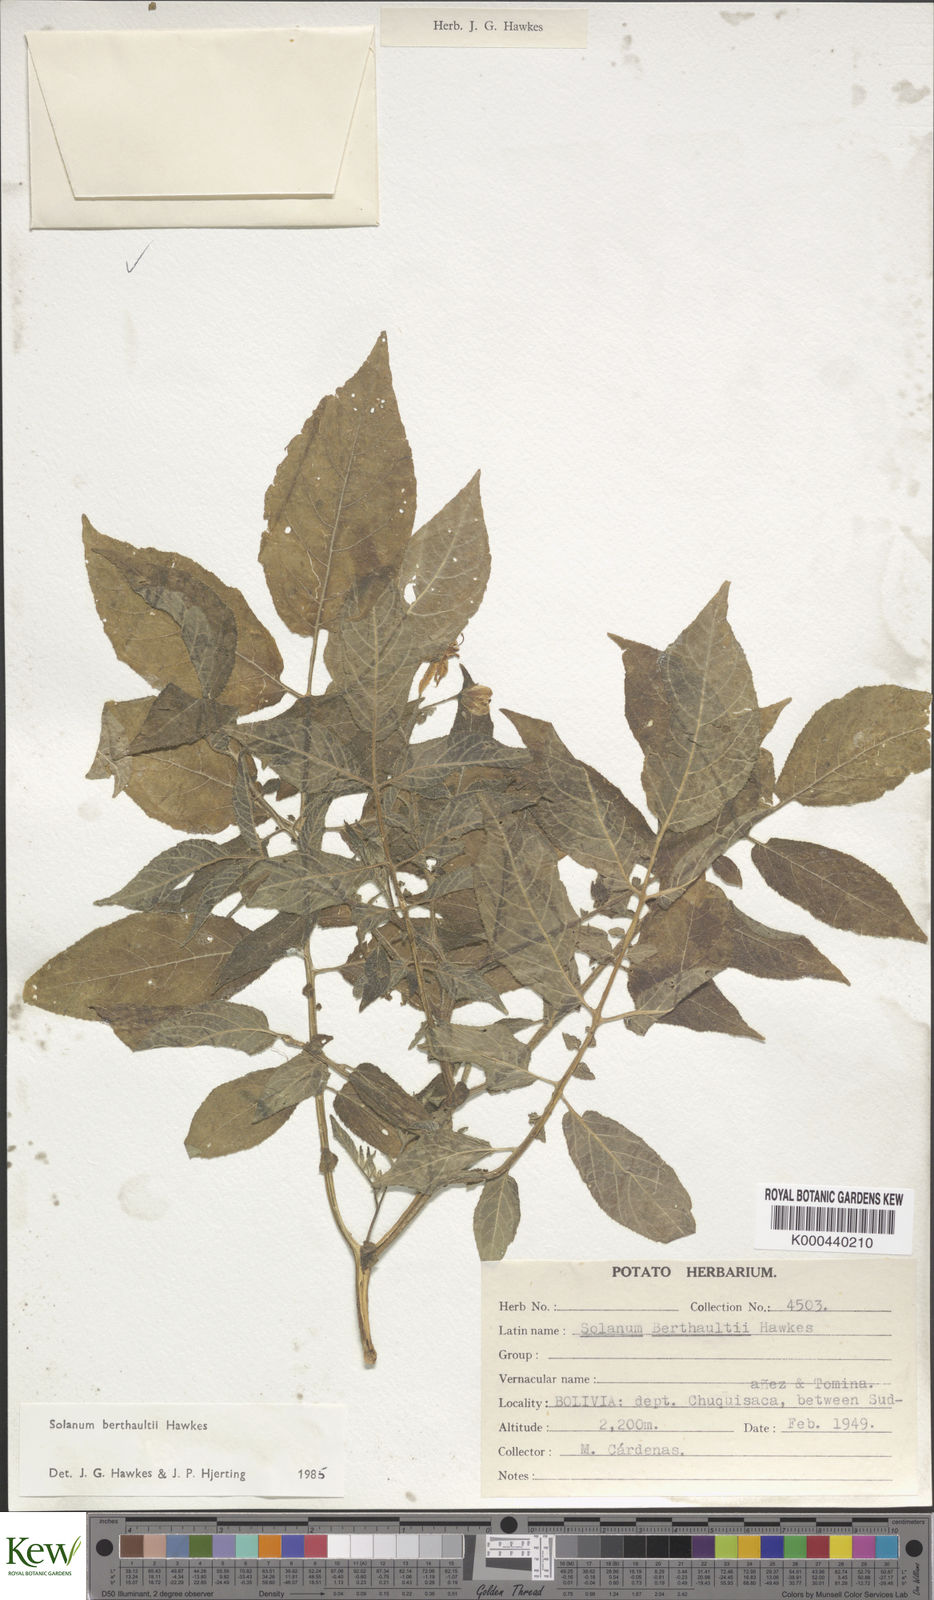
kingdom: Plantae
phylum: Tracheophyta
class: Magnoliopsida
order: Solanales
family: Solanaceae
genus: Solanum
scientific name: Solanum berthaultii
